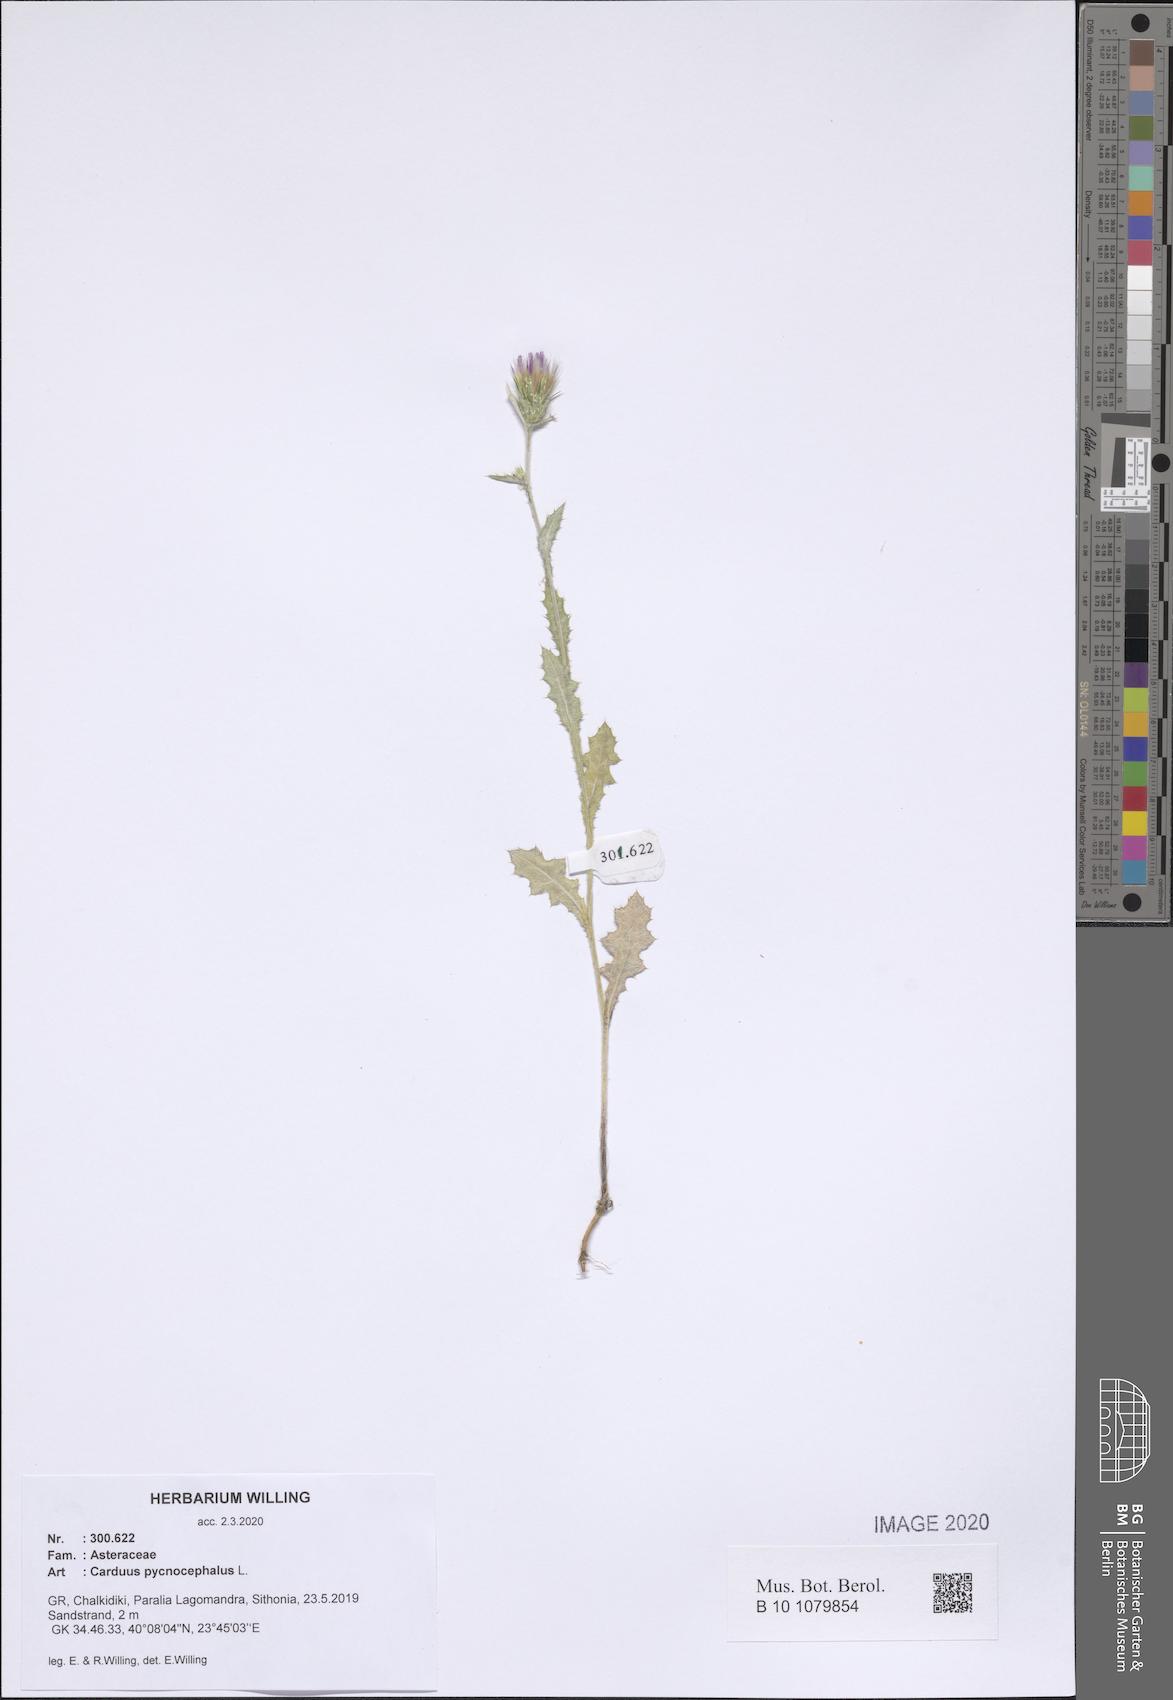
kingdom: Plantae
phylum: Tracheophyta
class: Magnoliopsida
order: Asterales
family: Asteraceae
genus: Carduus
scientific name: Carduus pycnocephalus
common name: Plymouth thistle
